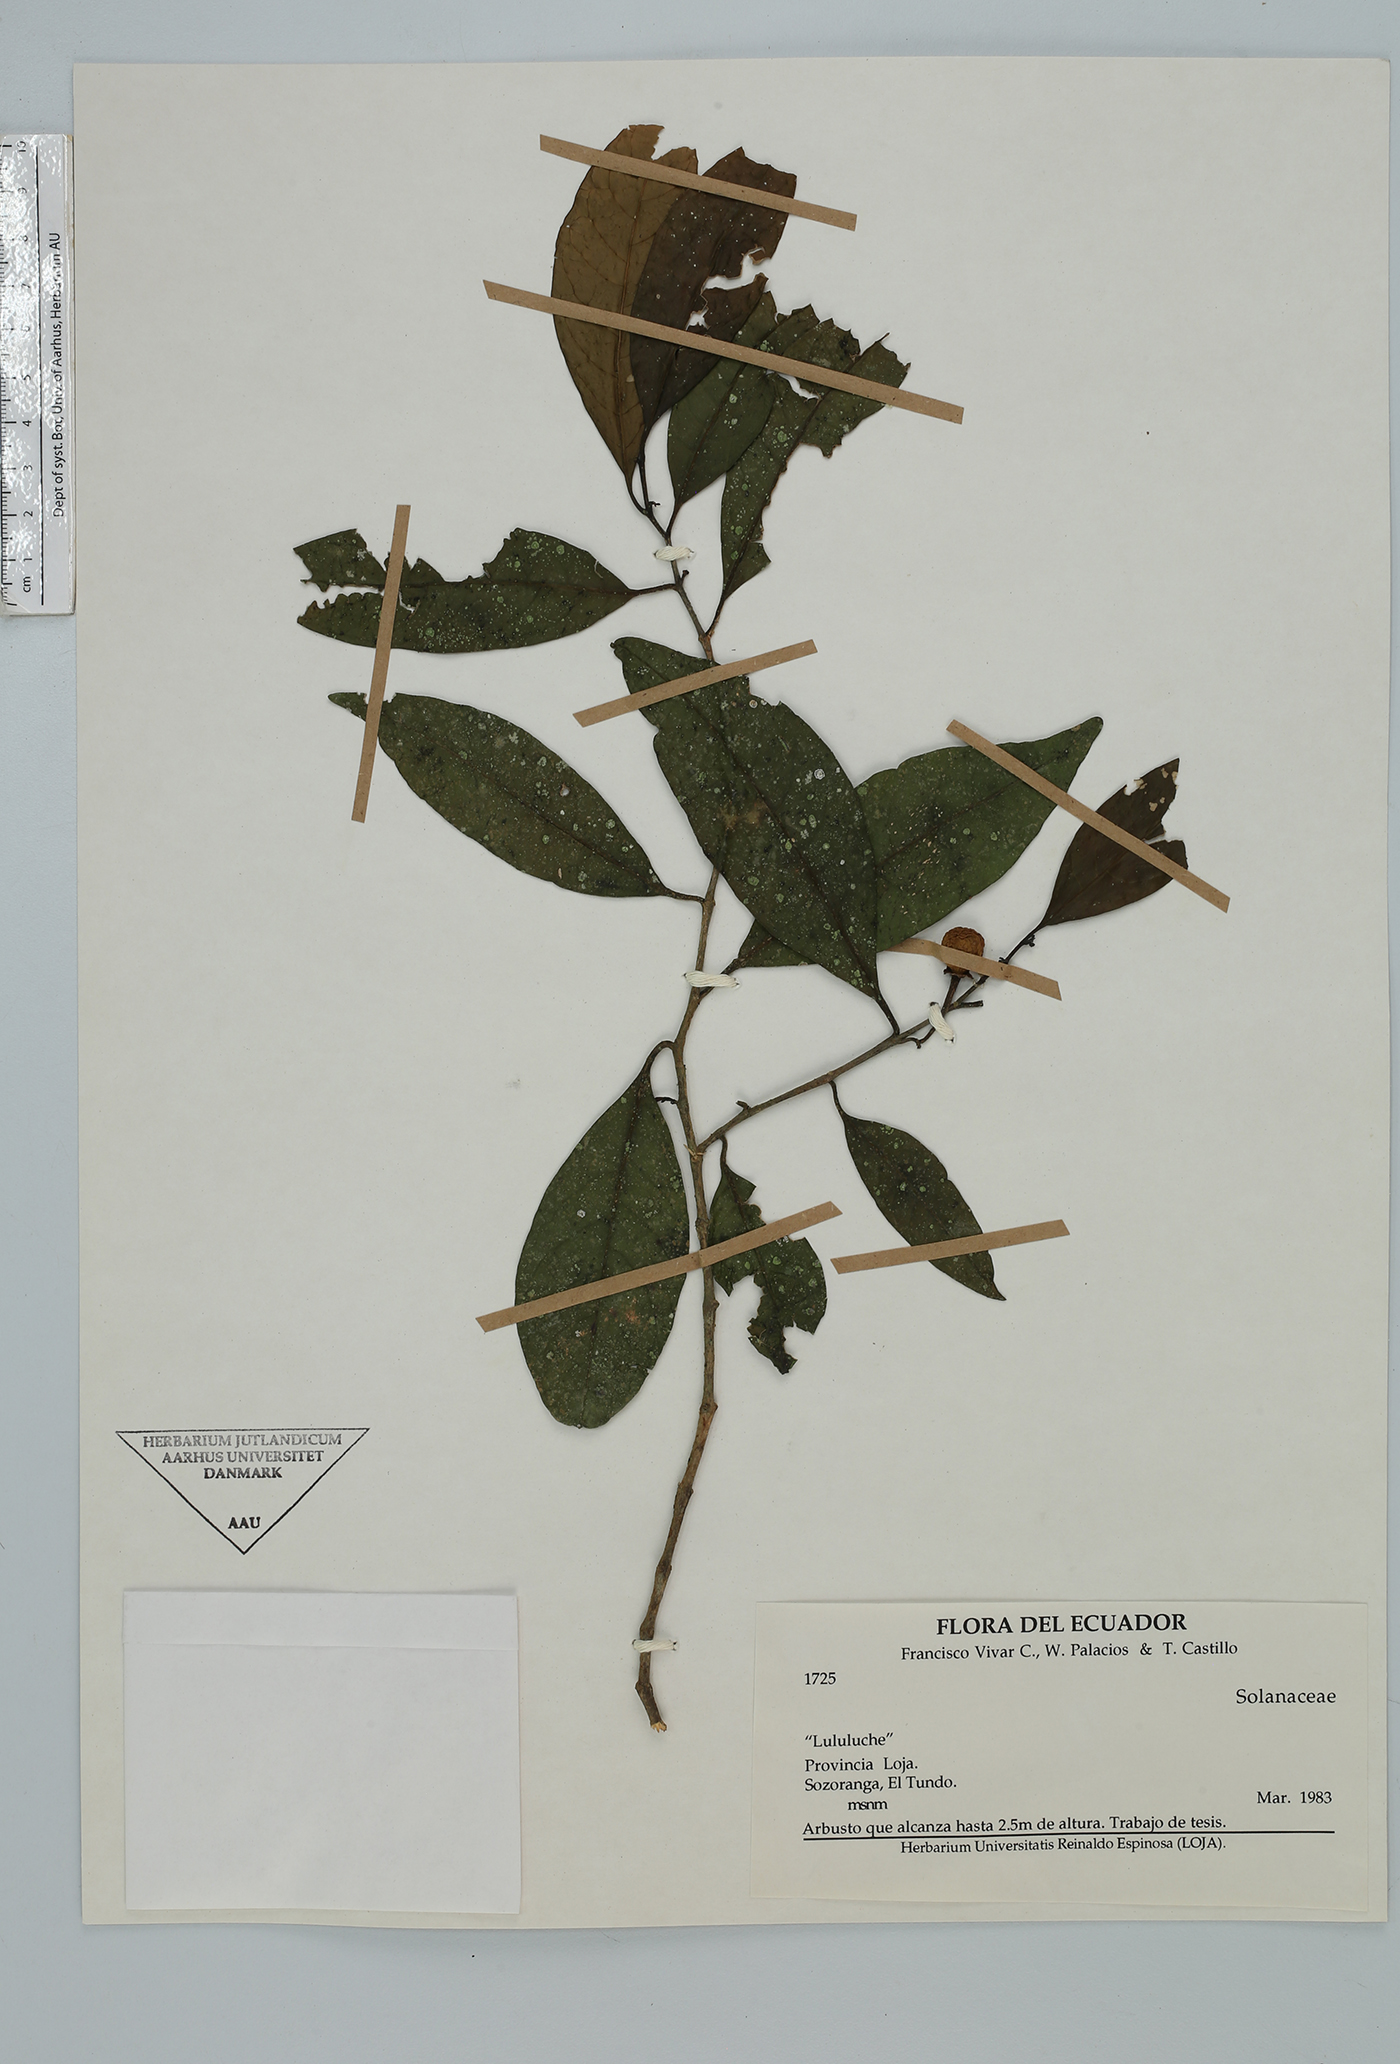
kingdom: Plantae
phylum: Tracheophyta
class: Magnoliopsida
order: Solanales
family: Solanaceae
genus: Solanum
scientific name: Solanum
